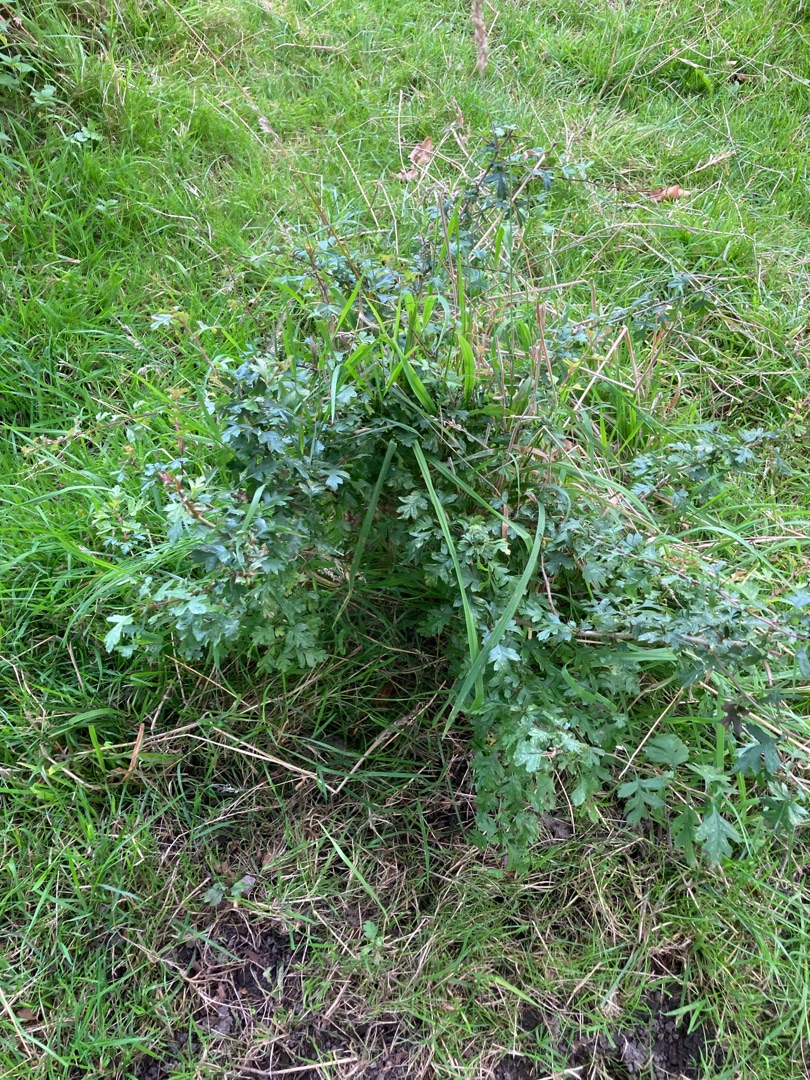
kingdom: Plantae
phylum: Tracheophyta
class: Magnoliopsida
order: Rosales
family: Rosaceae
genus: Crataegus
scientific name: Crataegus monogyna
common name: Engriflet hvidtjørn
